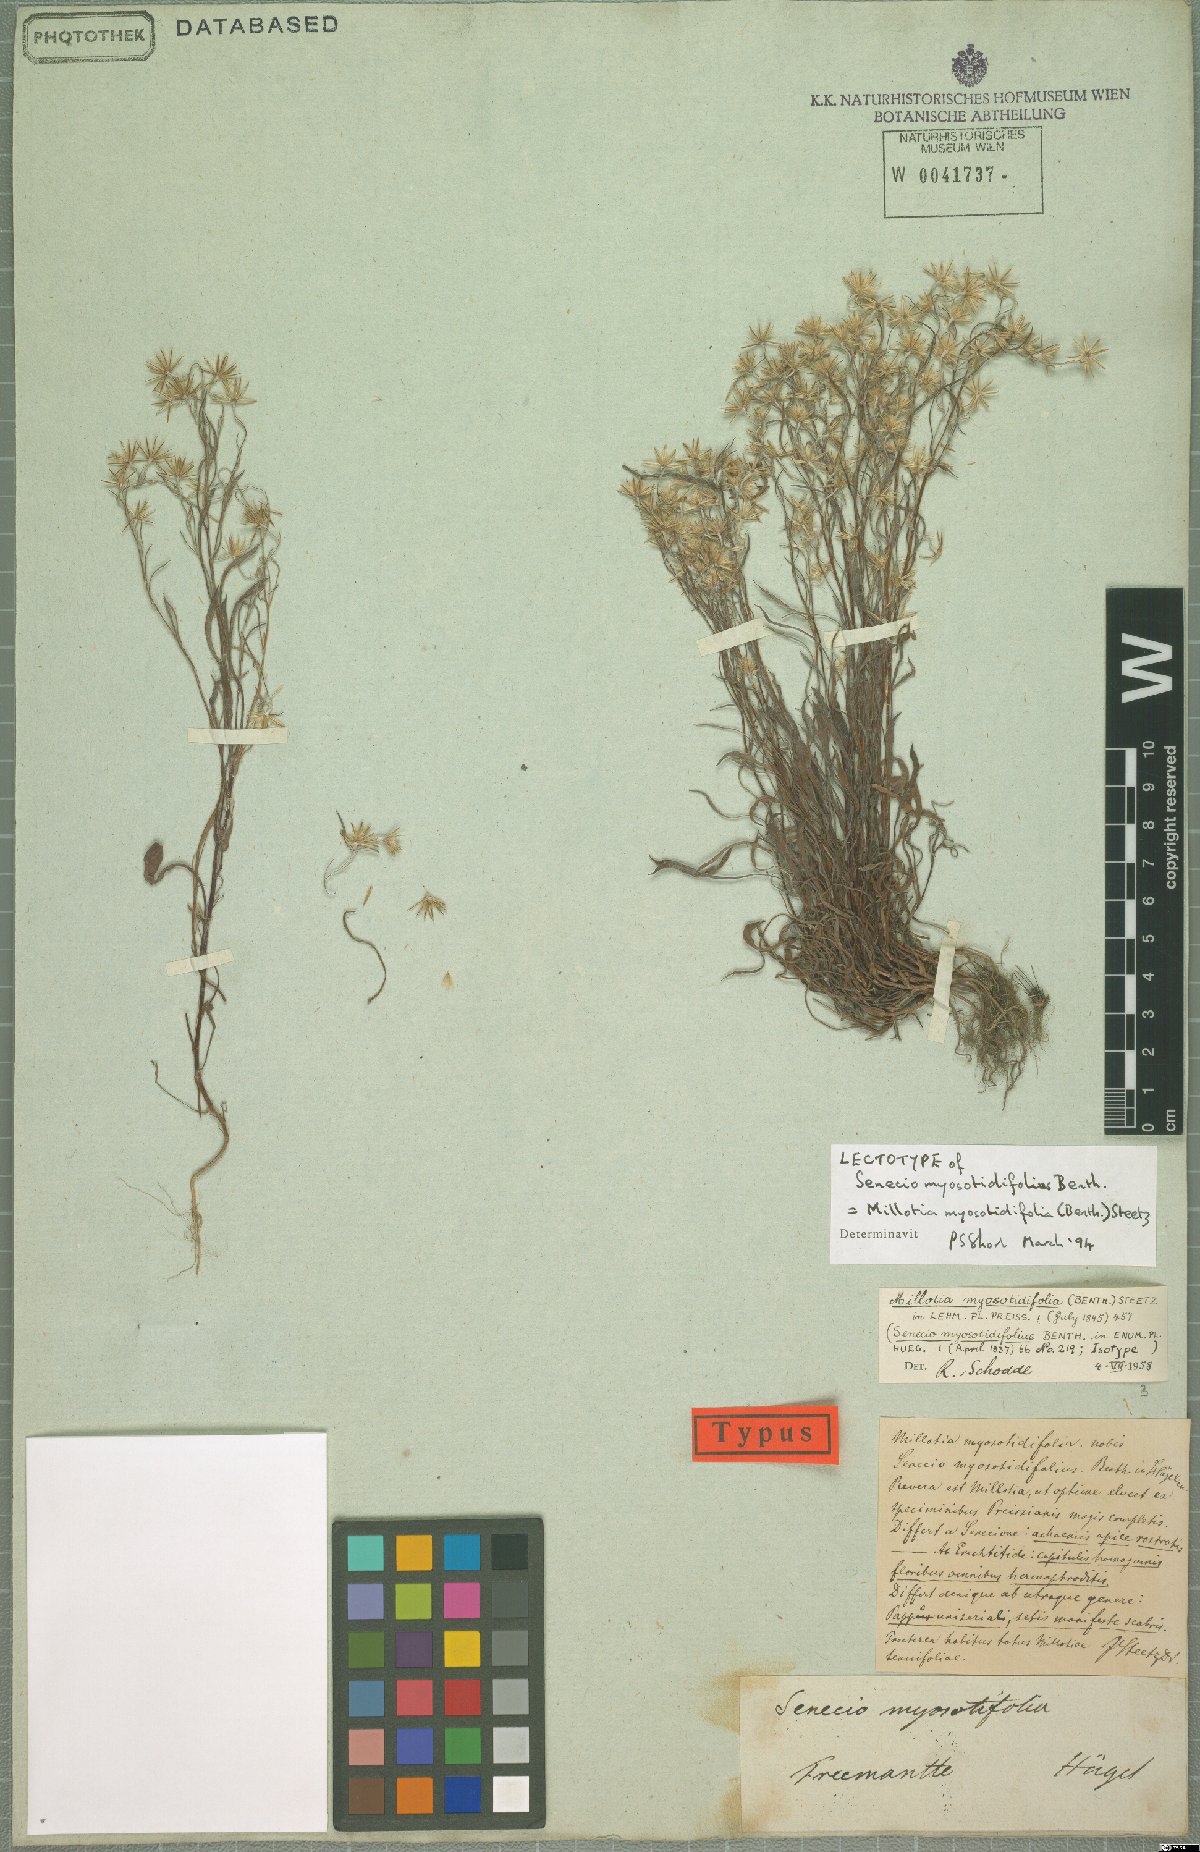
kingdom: Plantae
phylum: Tracheophyta
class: Magnoliopsida
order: Asterales
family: Asteraceae
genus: Millotia
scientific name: Millotia myosotidifolia
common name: Broad-leaved millotia
